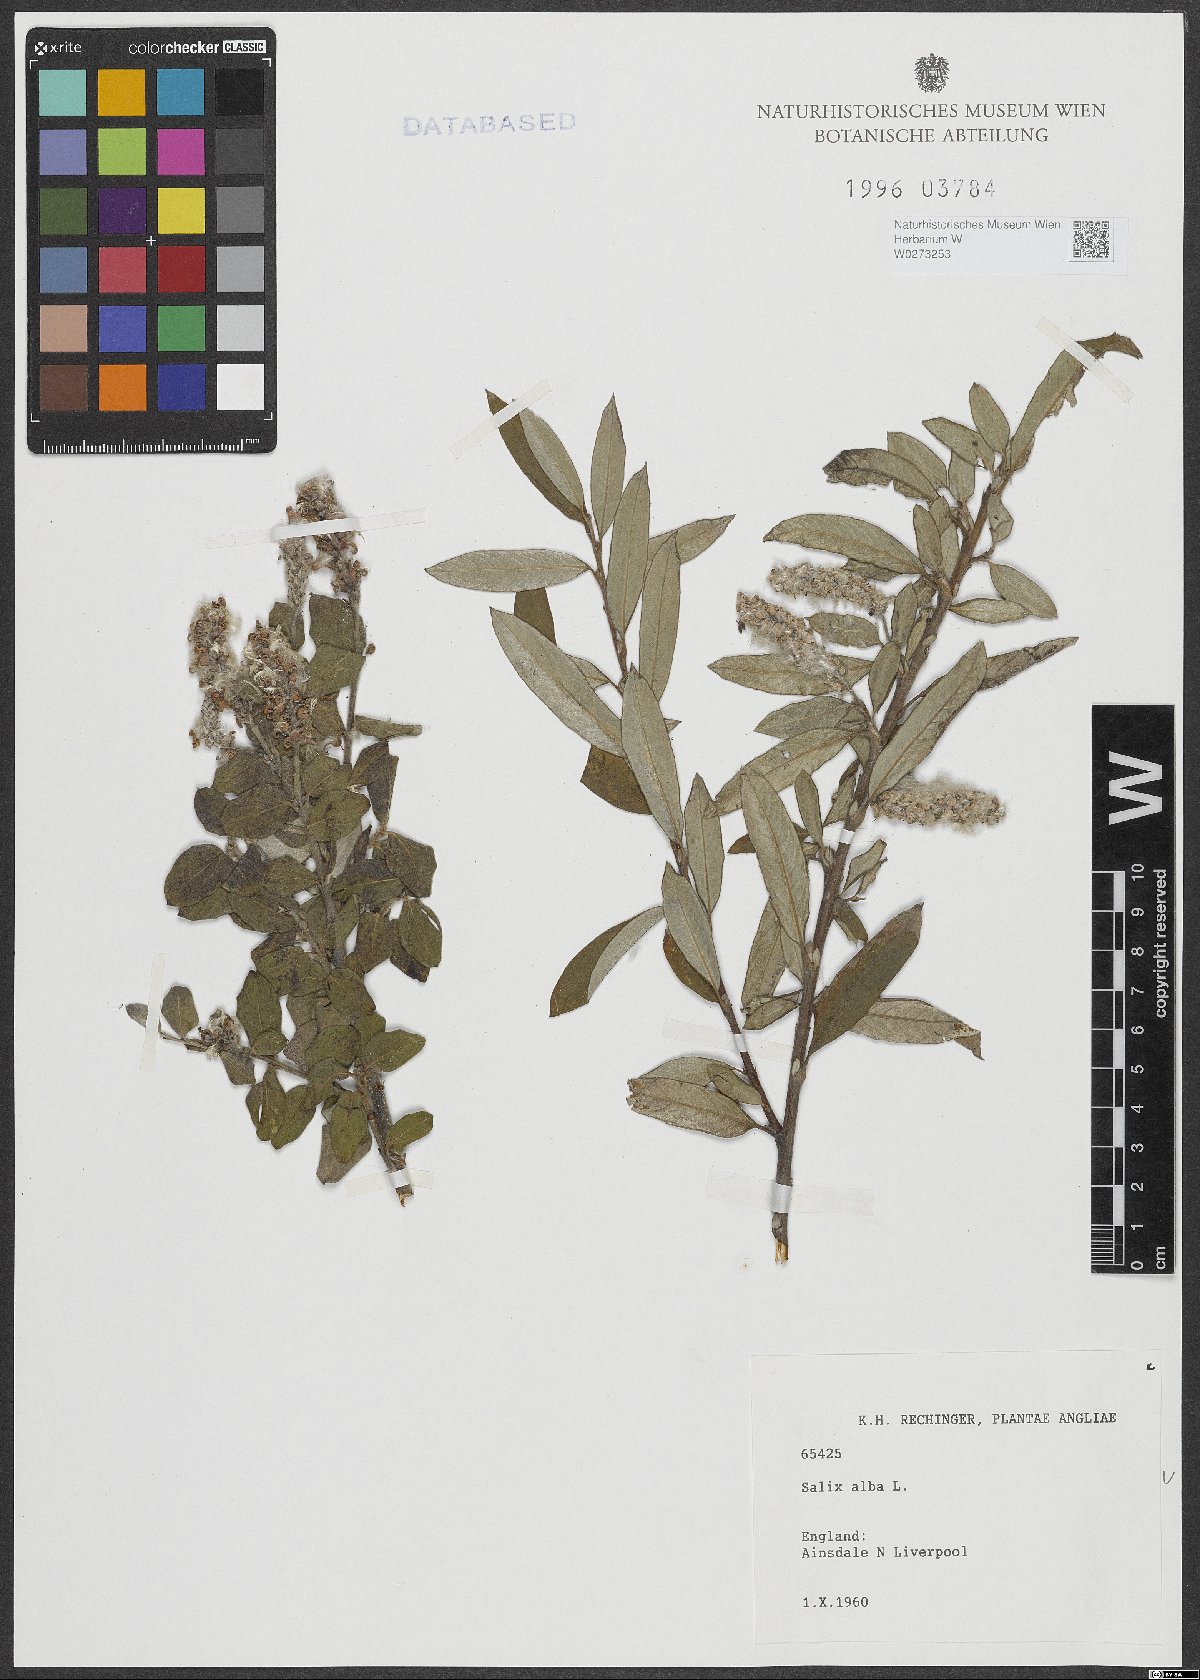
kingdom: Plantae
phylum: Tracheophyta
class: Magnoliopsida
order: Malpighiales
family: Salicaceae
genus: Salix
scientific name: Salix alba
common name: White willow
